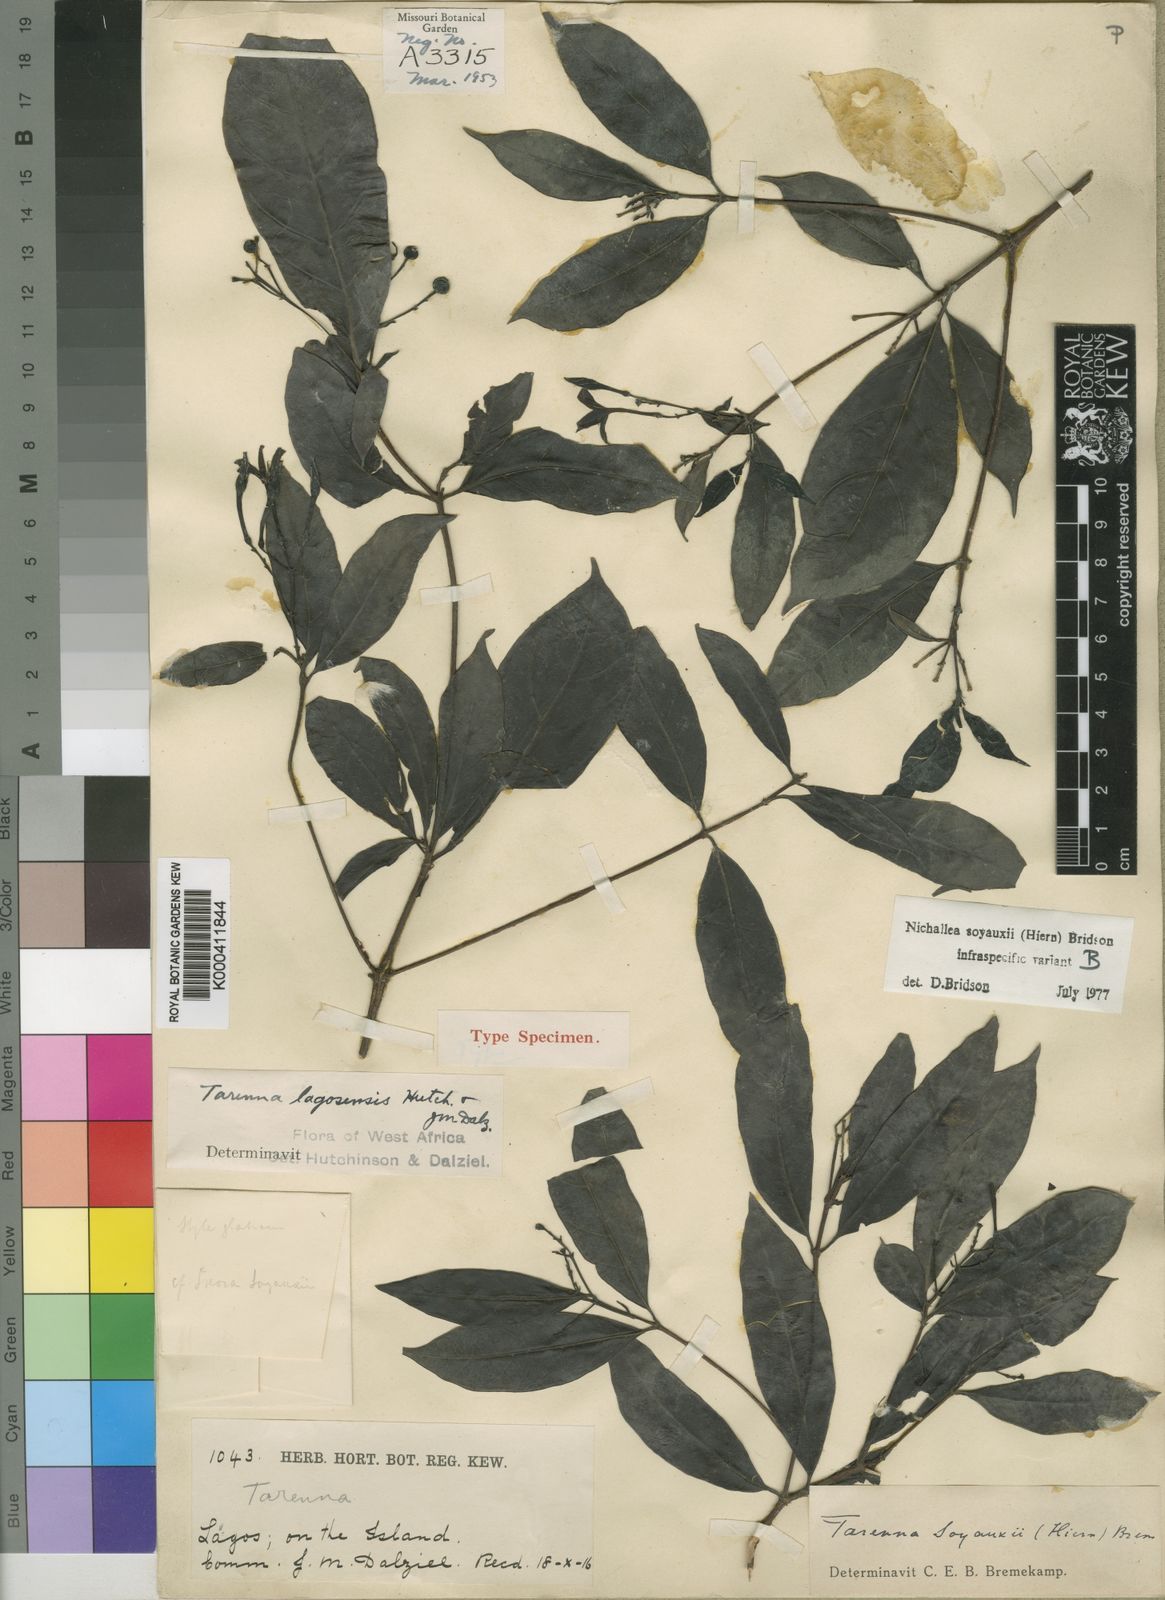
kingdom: Plantae
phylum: Tracheophyta
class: Magnoliopsida
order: Gentianales
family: Rubiaceae
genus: Nichallea
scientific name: Nichallea soyauxii
